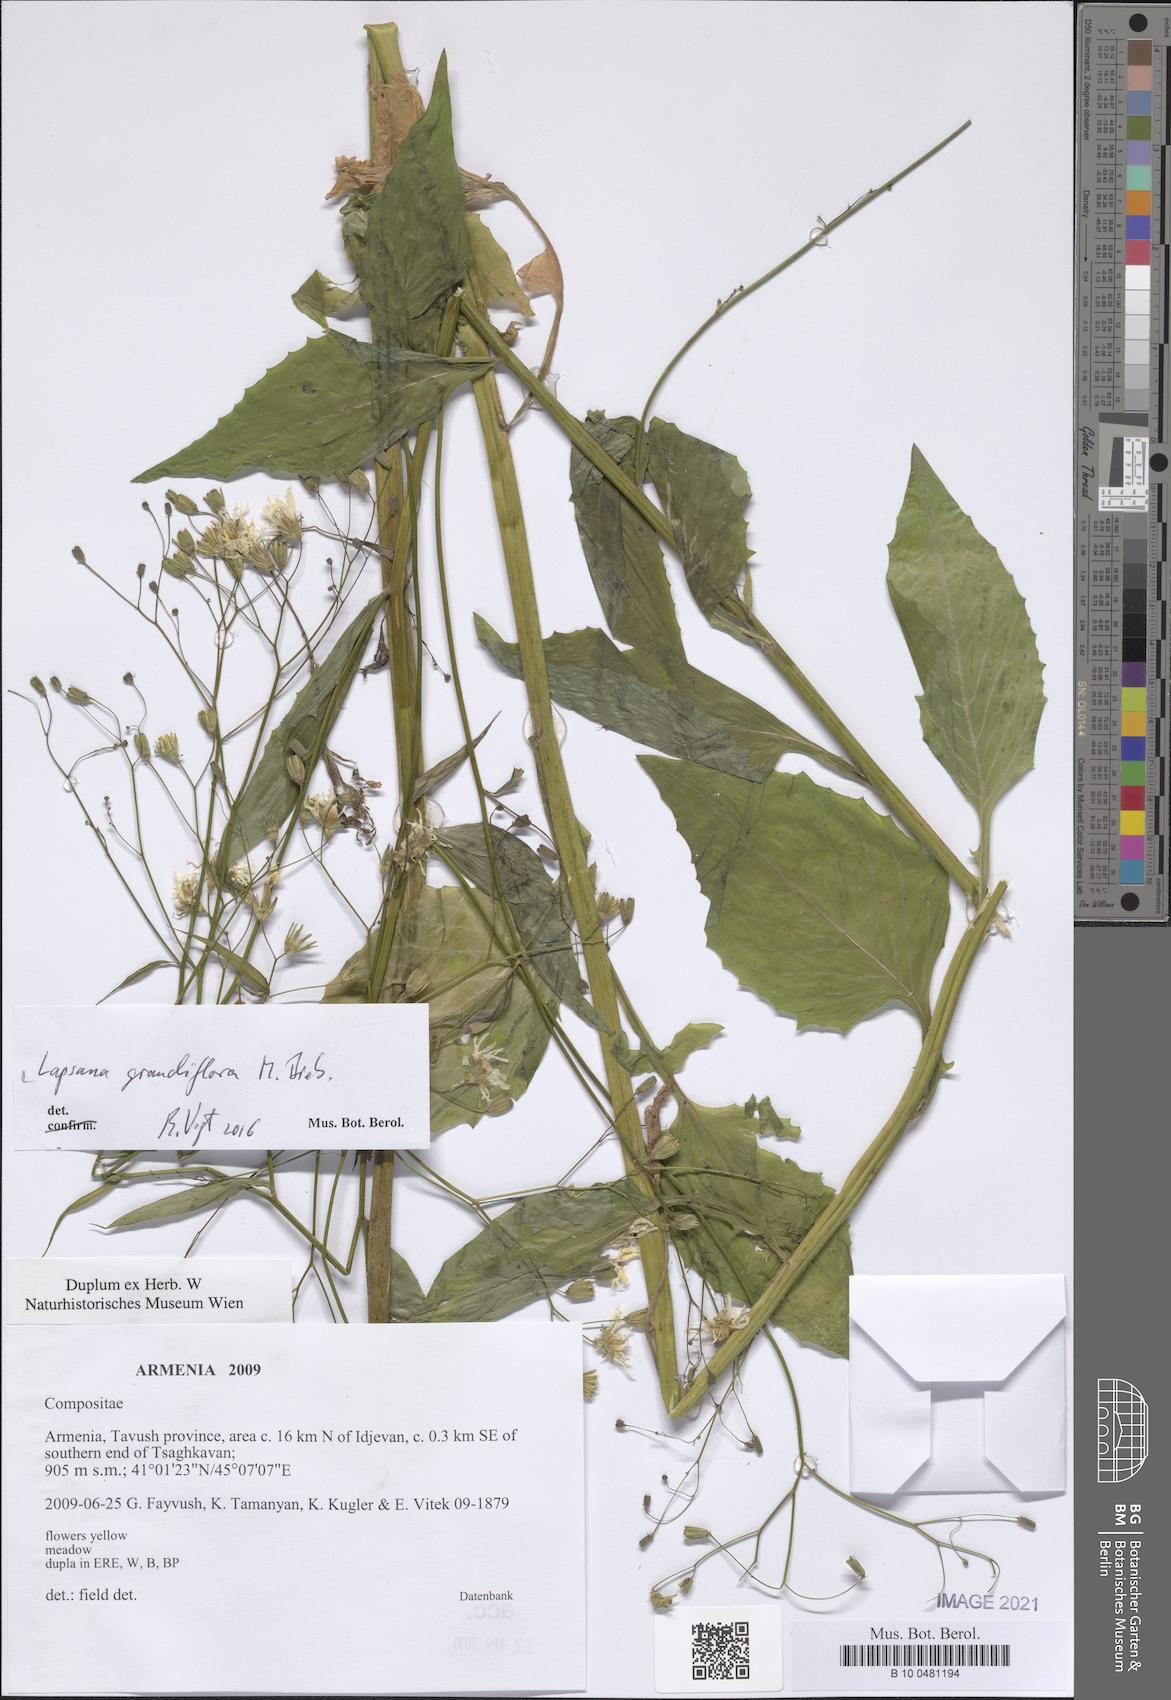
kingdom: Plantae
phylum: Tracheophyta
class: Magnoliopsida
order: Asterales
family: Asteraceae
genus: Lapsana
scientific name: Lapsana communis
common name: Nipplewort
